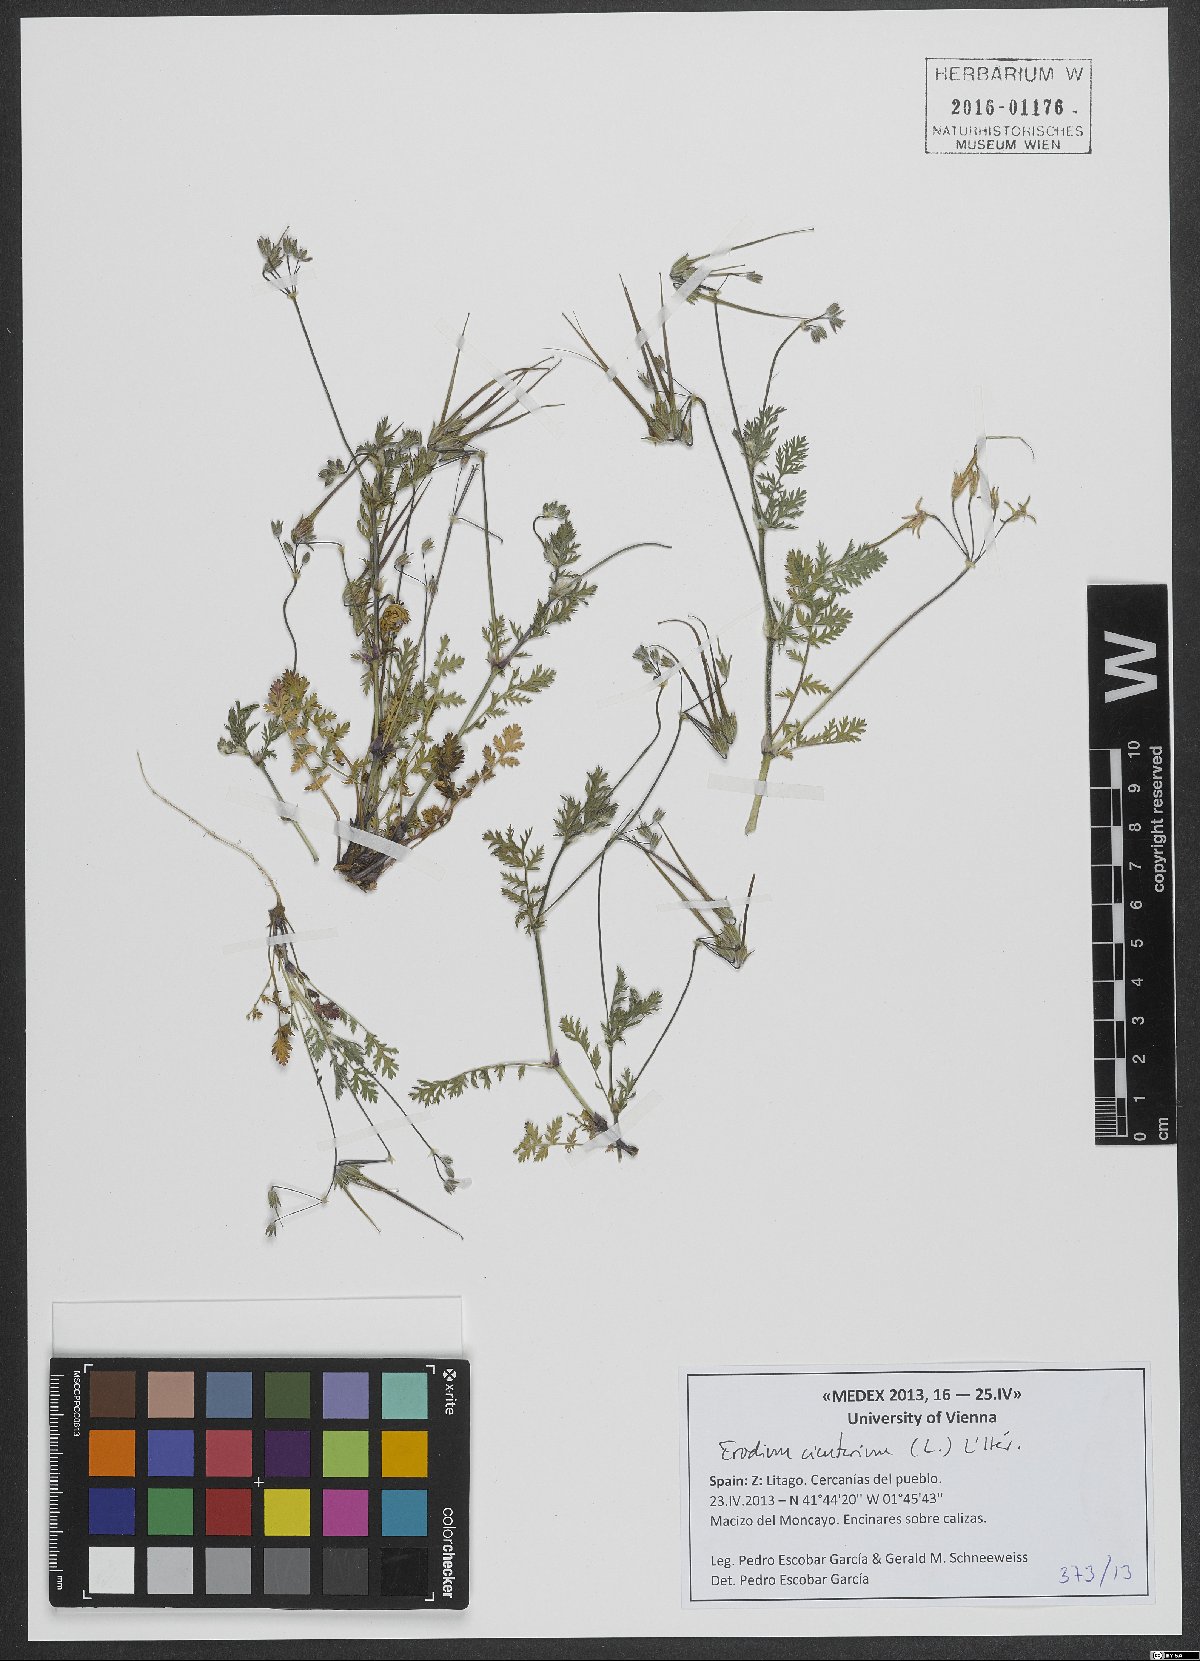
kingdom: Plantae
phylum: Tracheophyta
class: Magnoliopsida
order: Geraniales
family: Geraniaceae
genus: Erodium
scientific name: Erodium cicutarium
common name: Common stork's-bill
